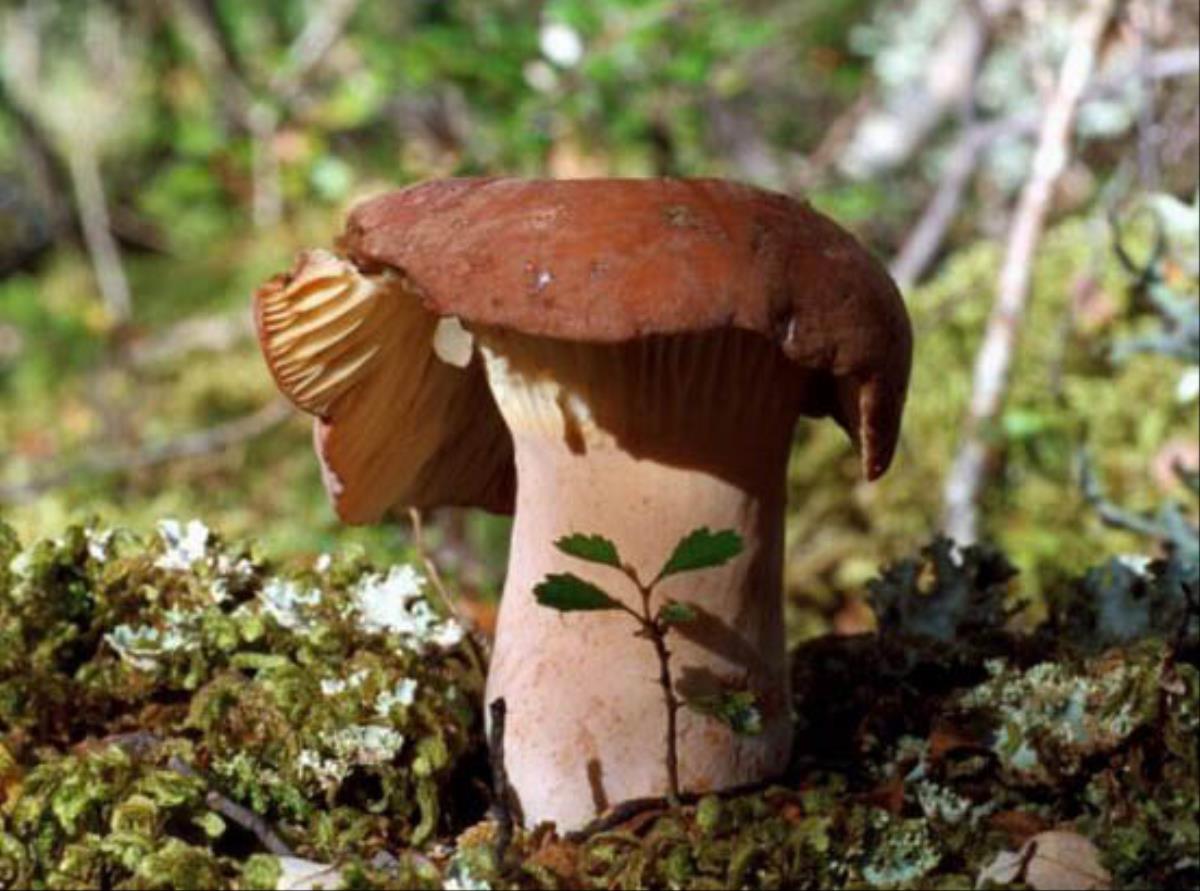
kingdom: Fungi
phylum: Basidiomycota
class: Agaricomycetes
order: Russulales
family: Russulaceae
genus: Lactifluus
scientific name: Lactifluus aurantioruber
